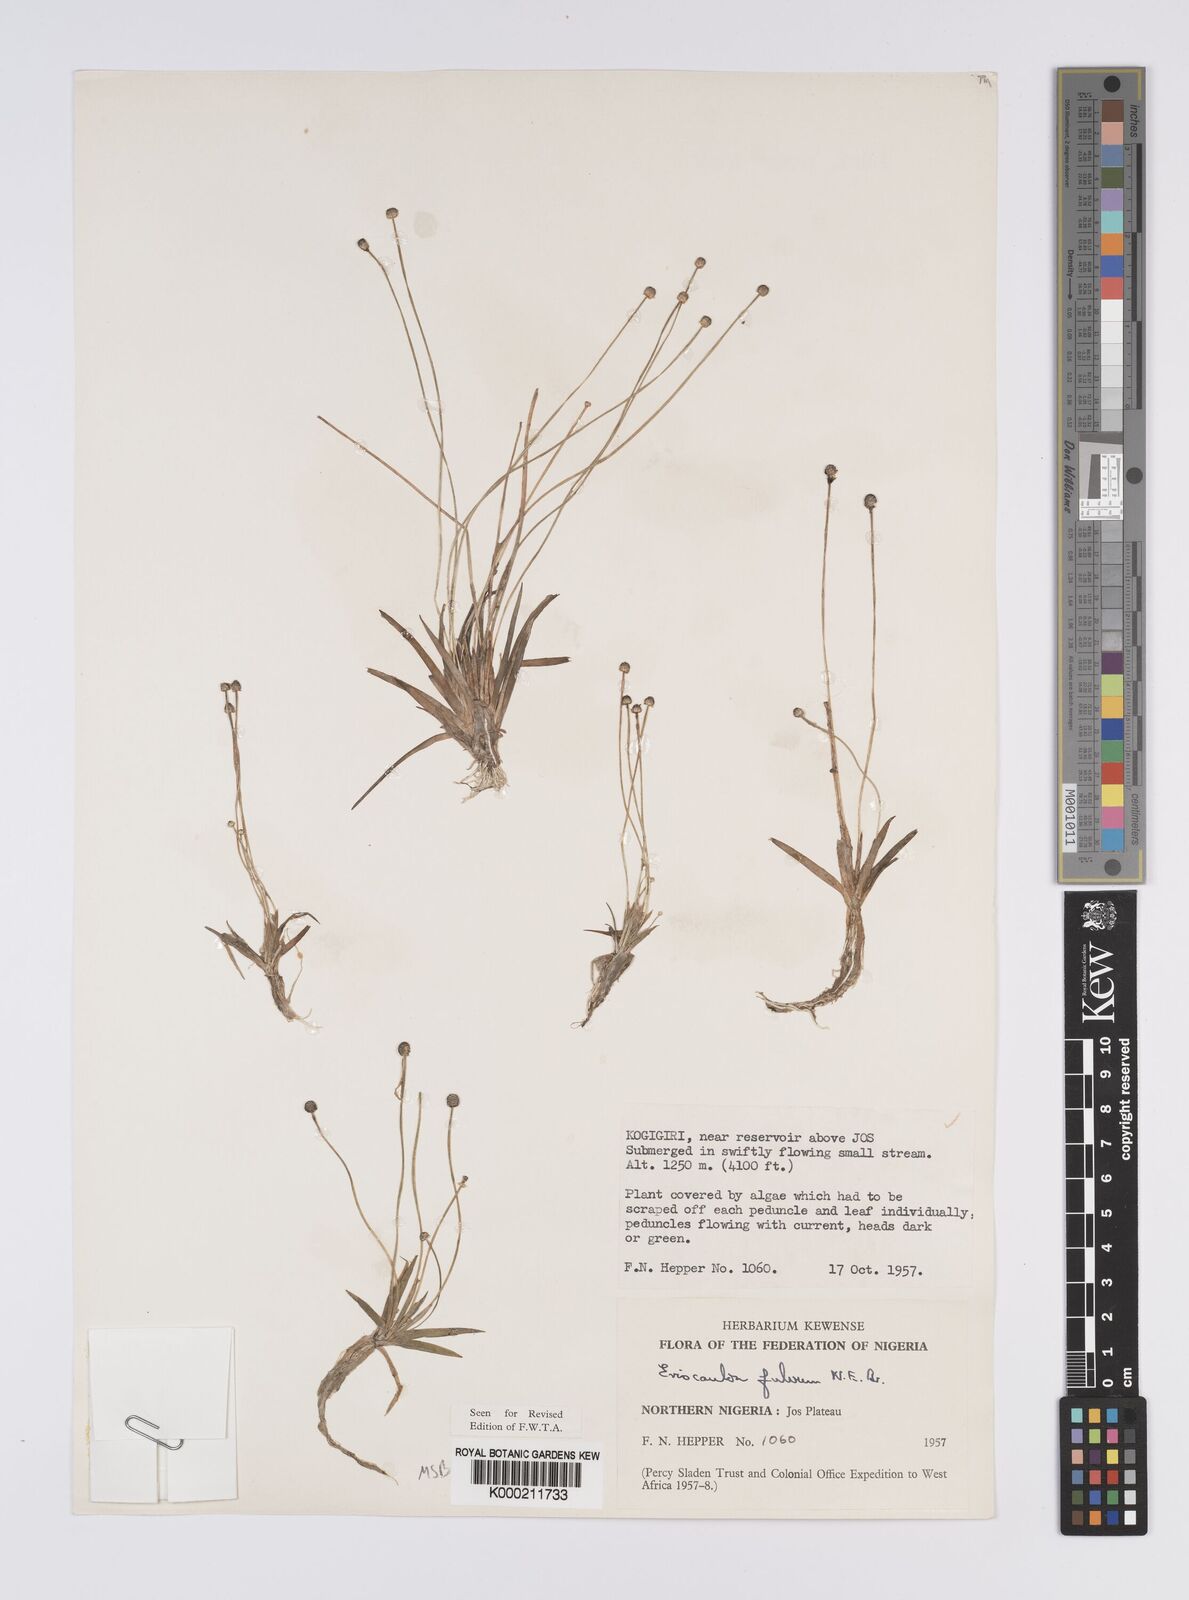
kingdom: Plantae
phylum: Tracheophyta
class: Liliopsida
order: Poales
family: Eriocaulaceae
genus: Eriocaulon
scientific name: Eriocaulon fulvum
